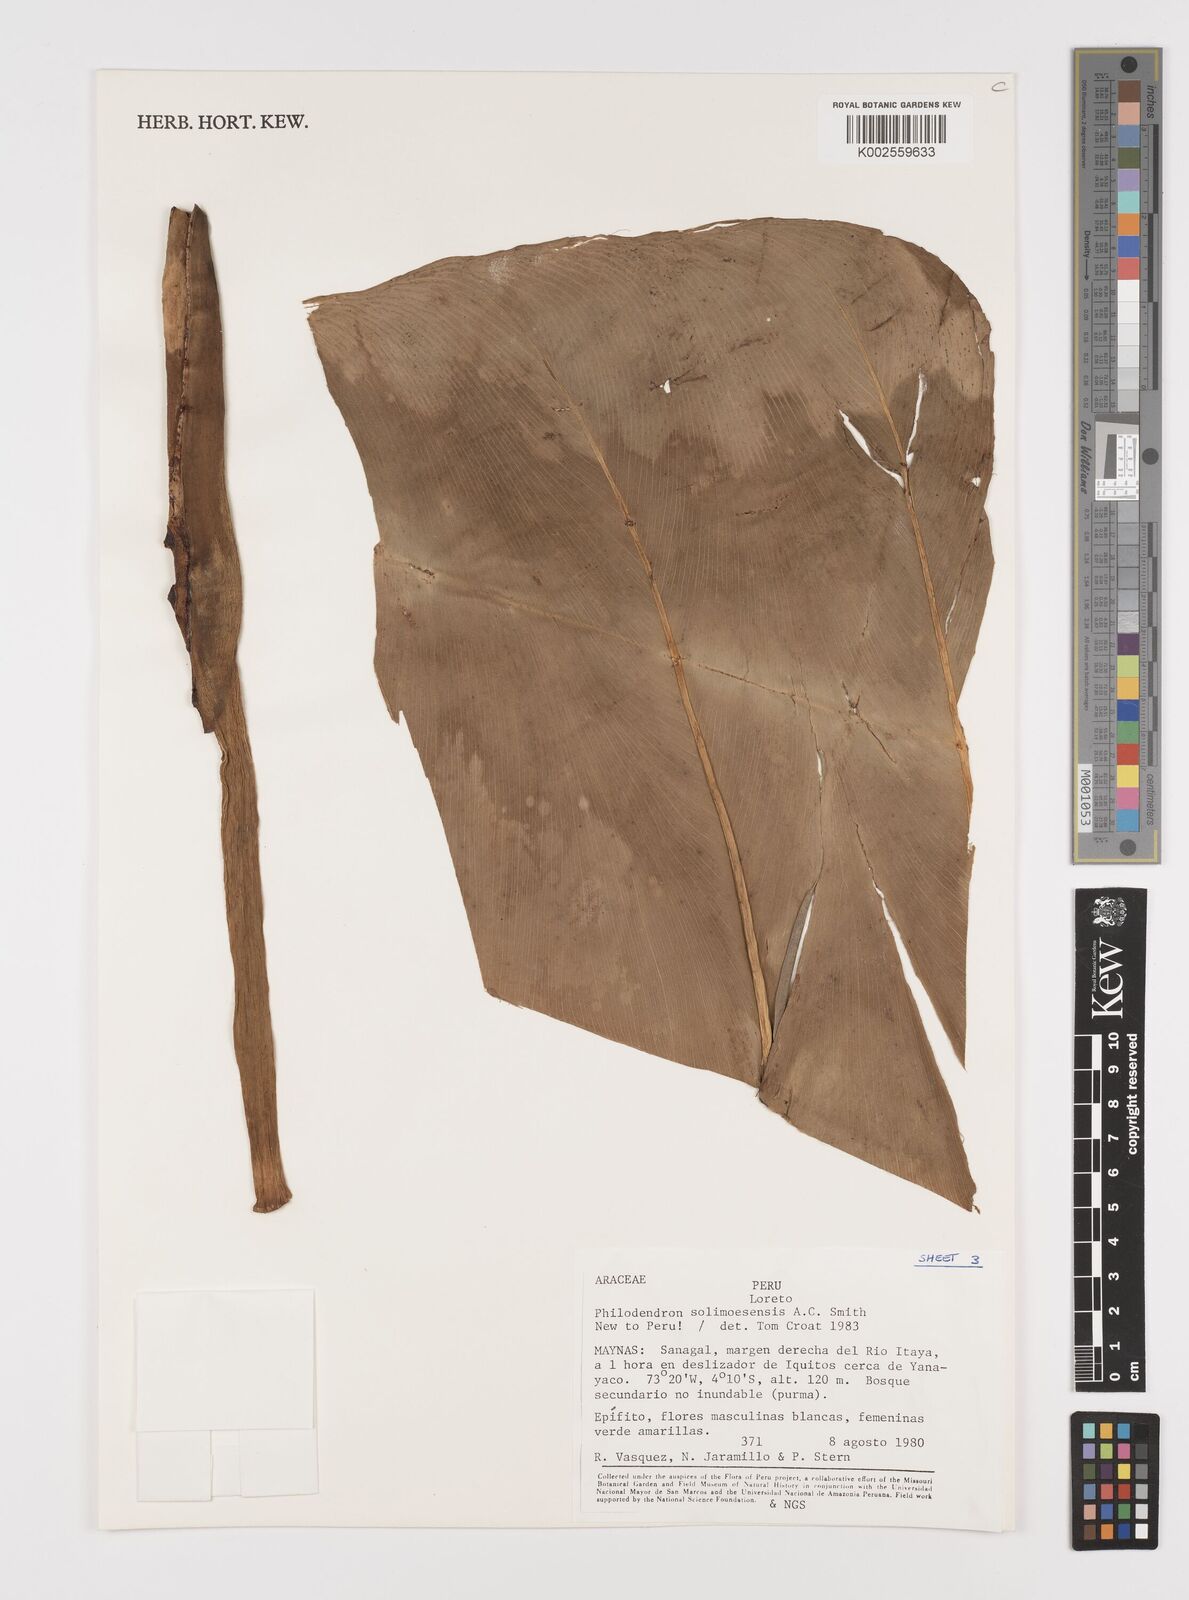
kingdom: Plantae
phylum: Tracheophyta
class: Liliopsida
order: Alismatales
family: Araceae
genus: Thaumatophyllum
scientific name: Thaumatophyllum solimoesense
